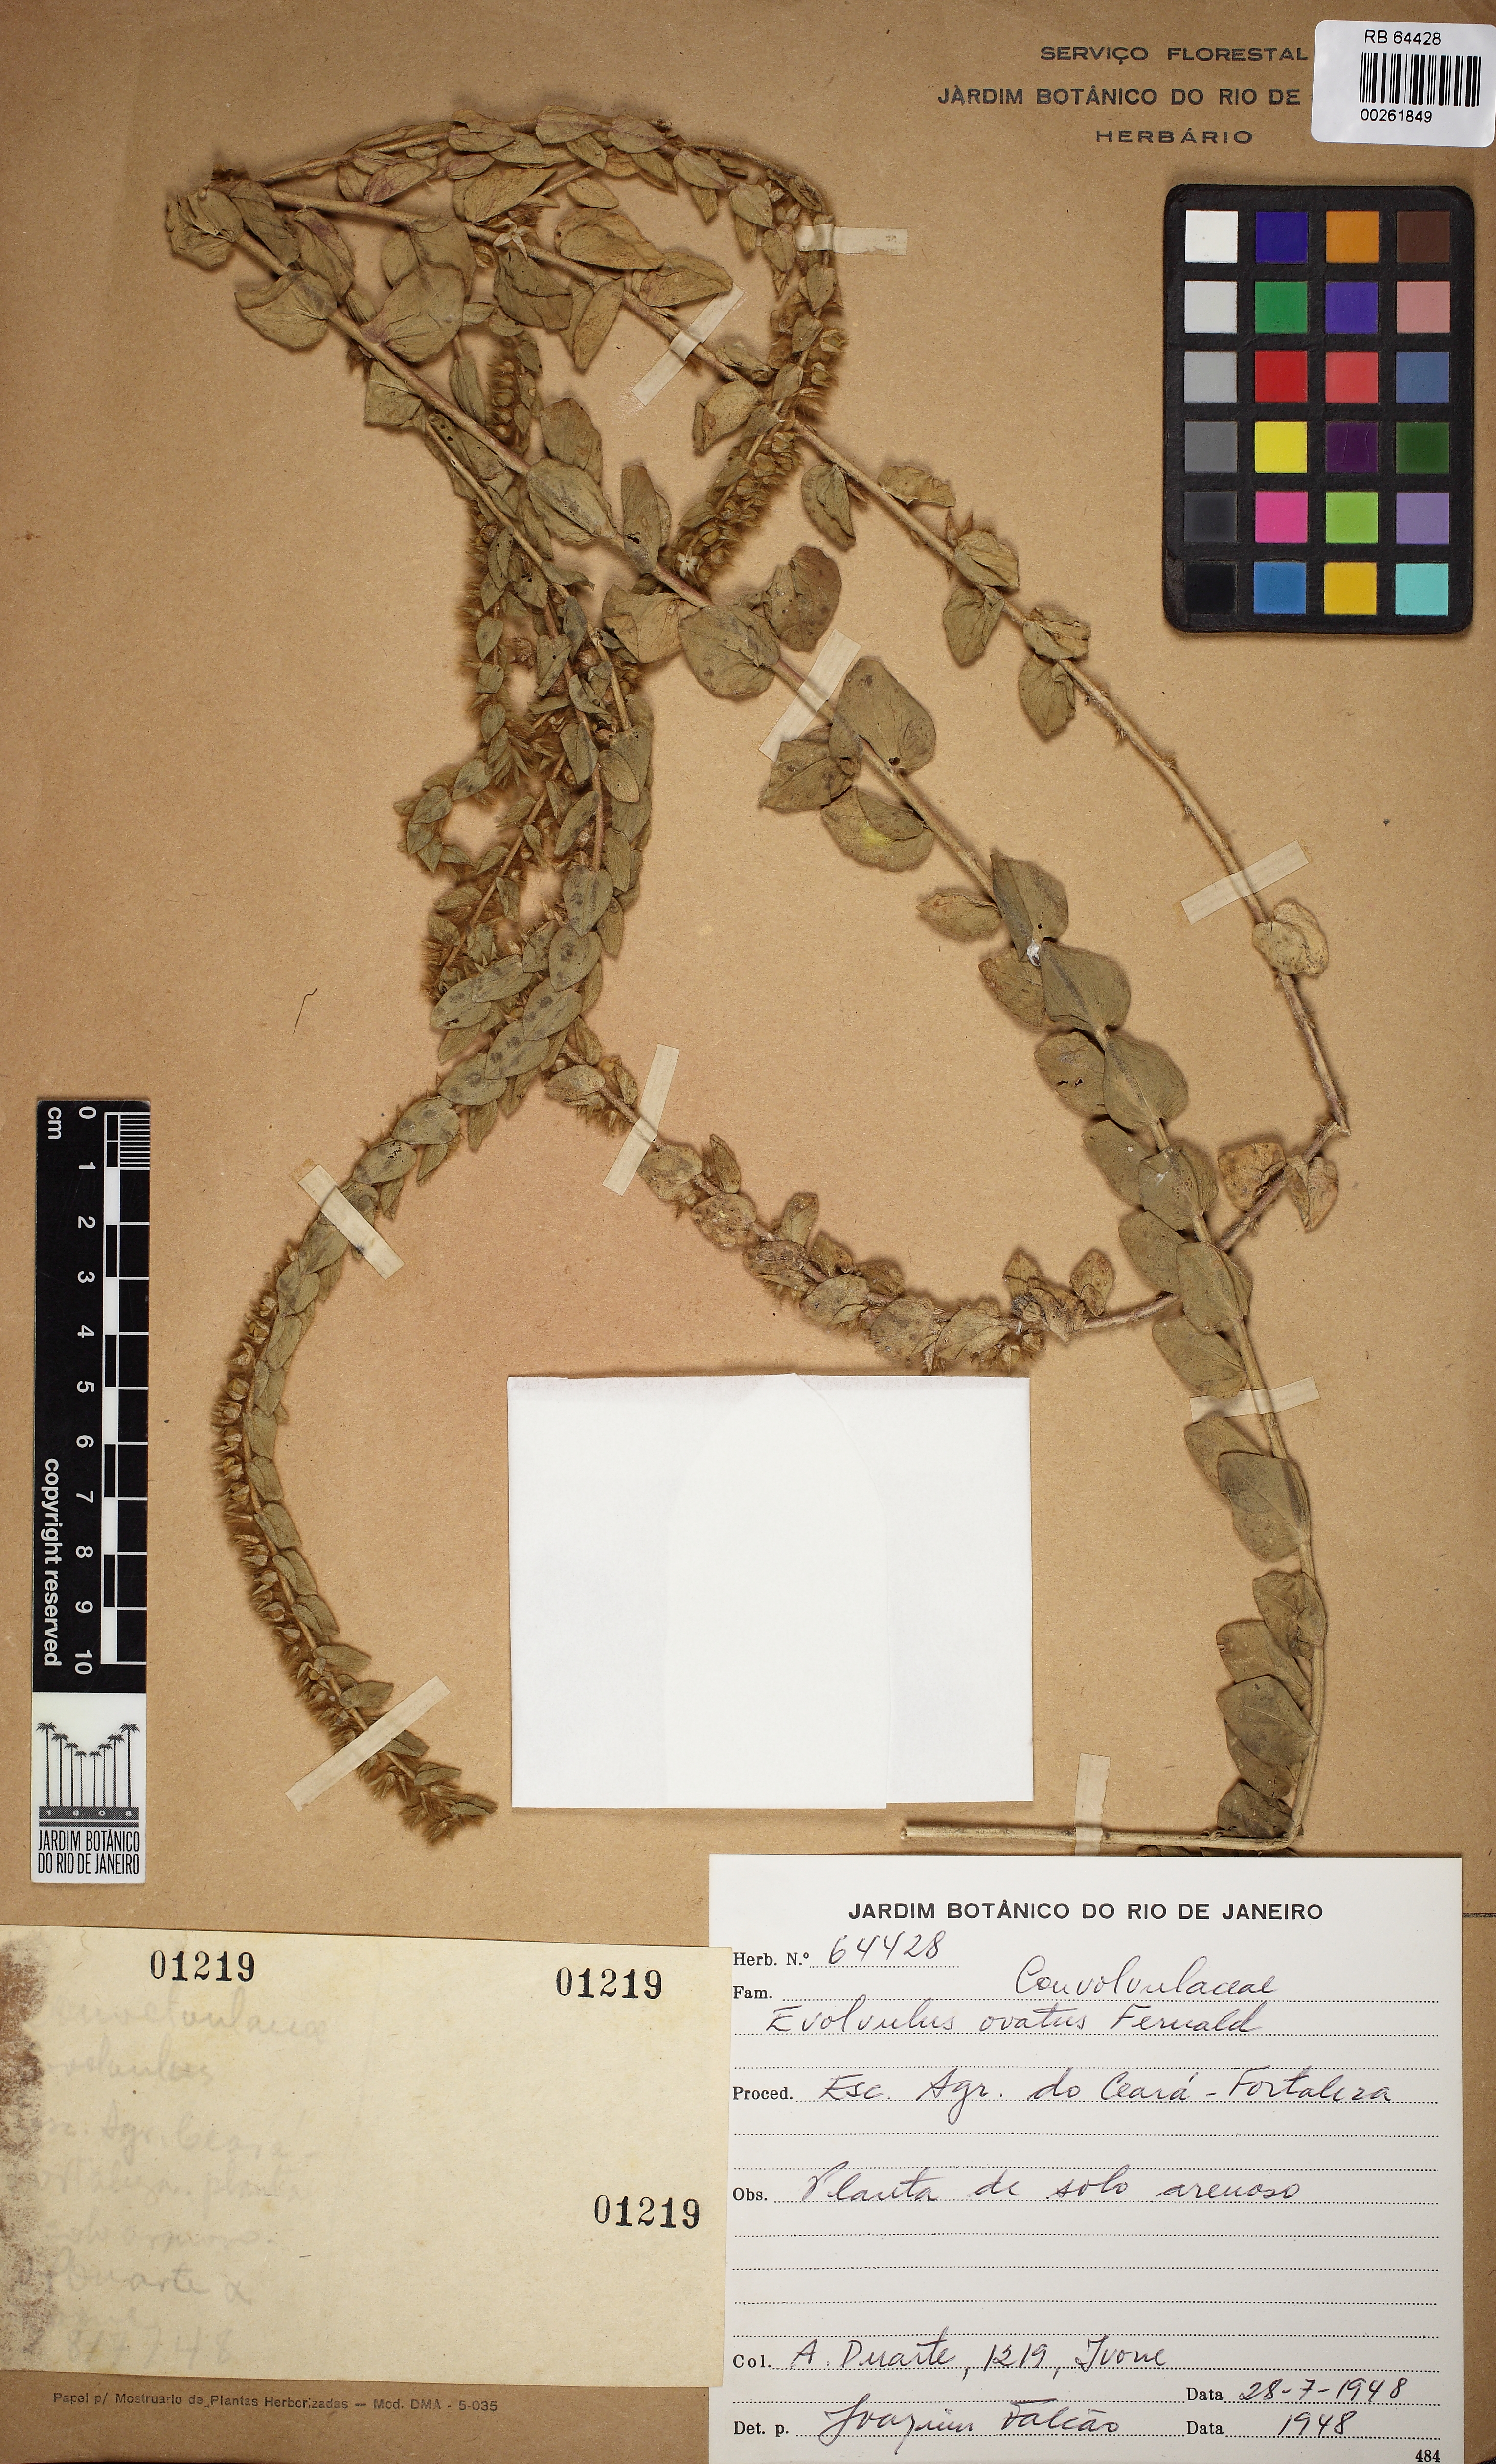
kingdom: Plantae
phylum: Tracheophyta
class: Magnoliopsida
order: Solanales
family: Convolvulaceae
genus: Evolvulus
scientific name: Evolvulus ovatus
